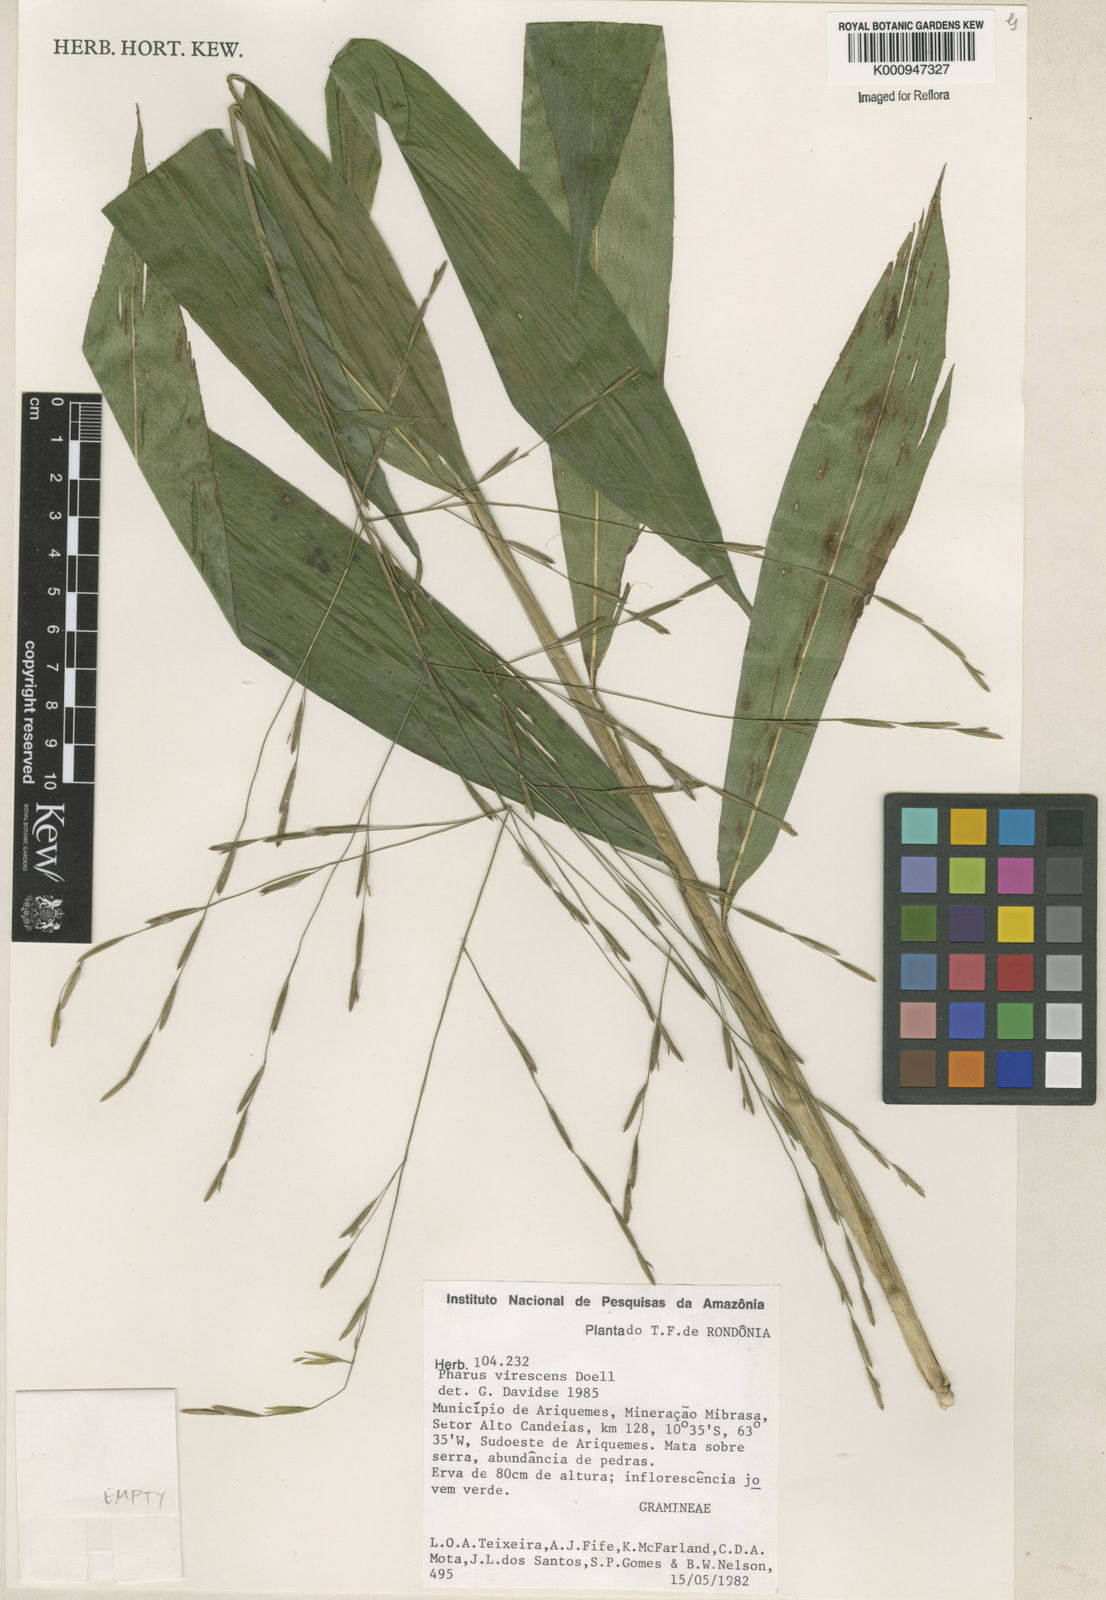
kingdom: Plantae
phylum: Tracheophyta
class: Liliopsida
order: Poales
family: Poaceae
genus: Pharus
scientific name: Pharus
